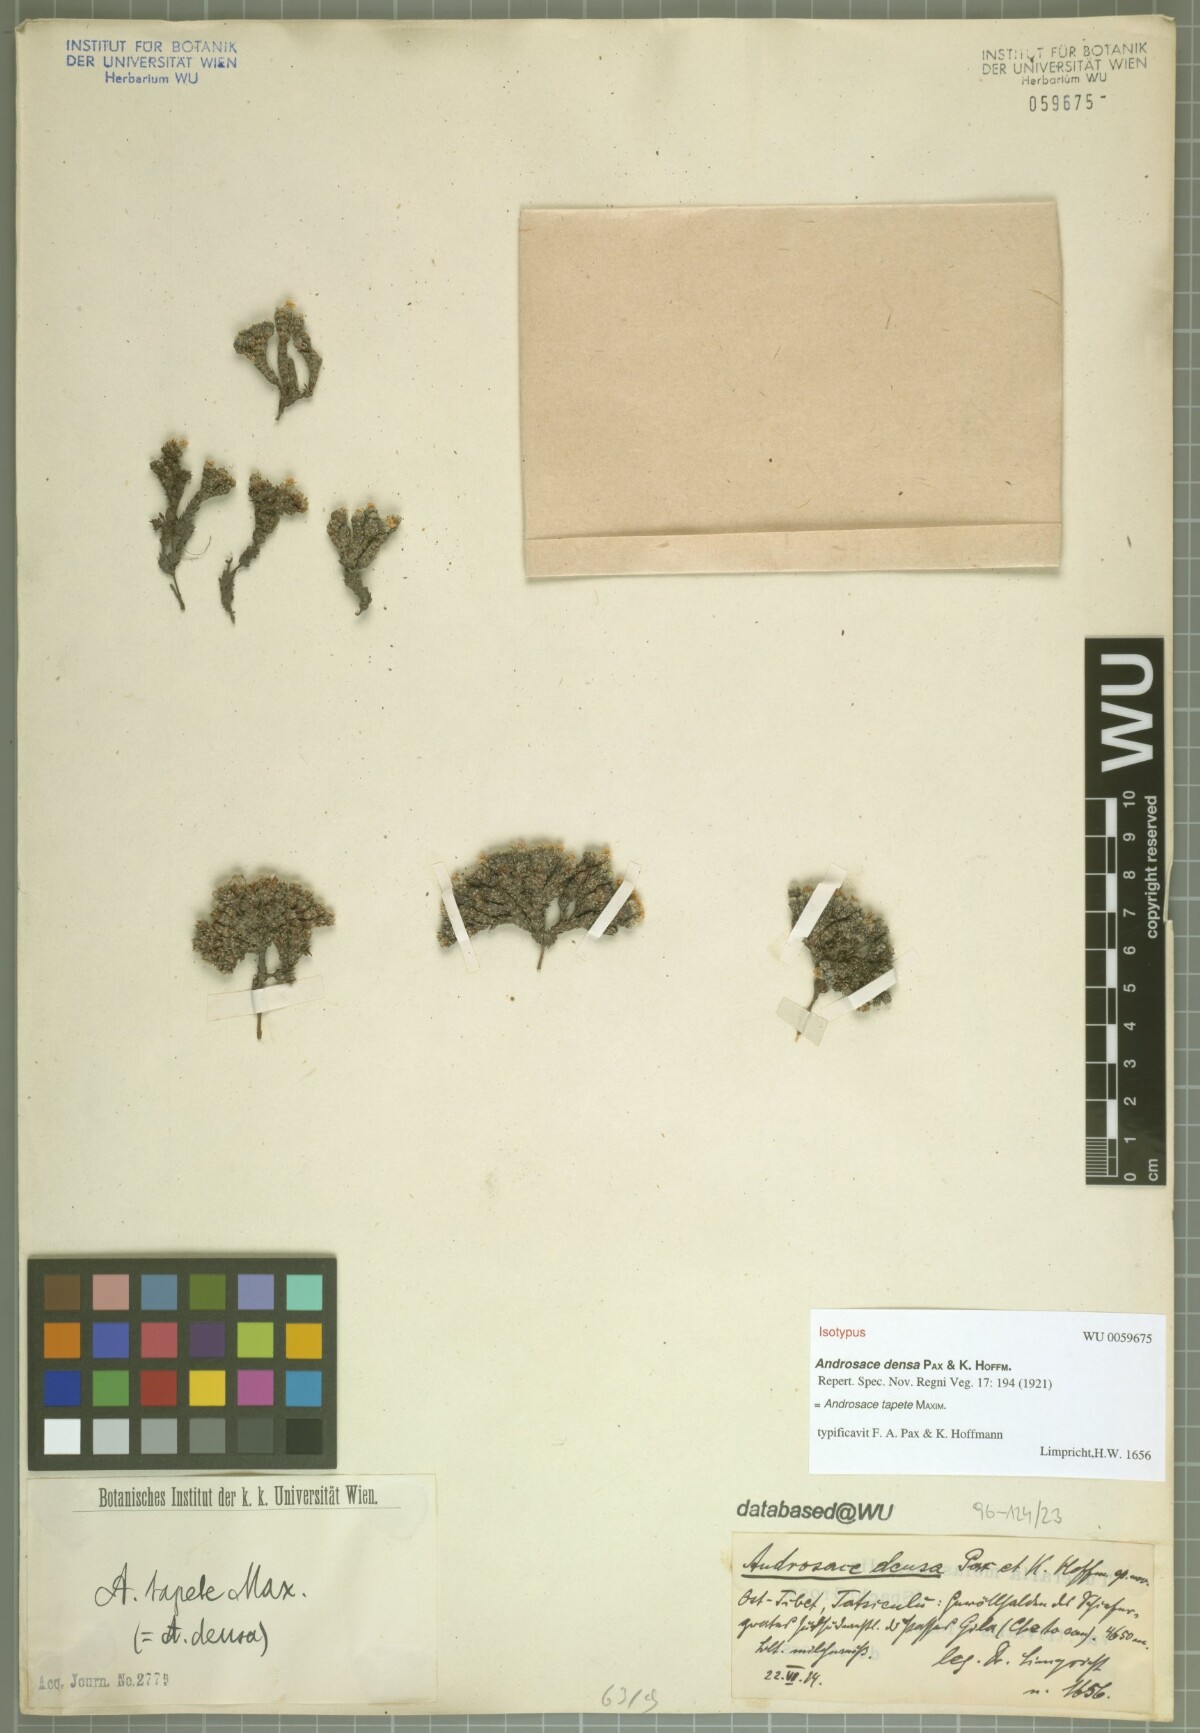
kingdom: Plantae
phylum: Tracheophyta
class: Magnoliopsida
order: Ericales
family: Primulaceae
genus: Androsace
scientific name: Androsace tapete
